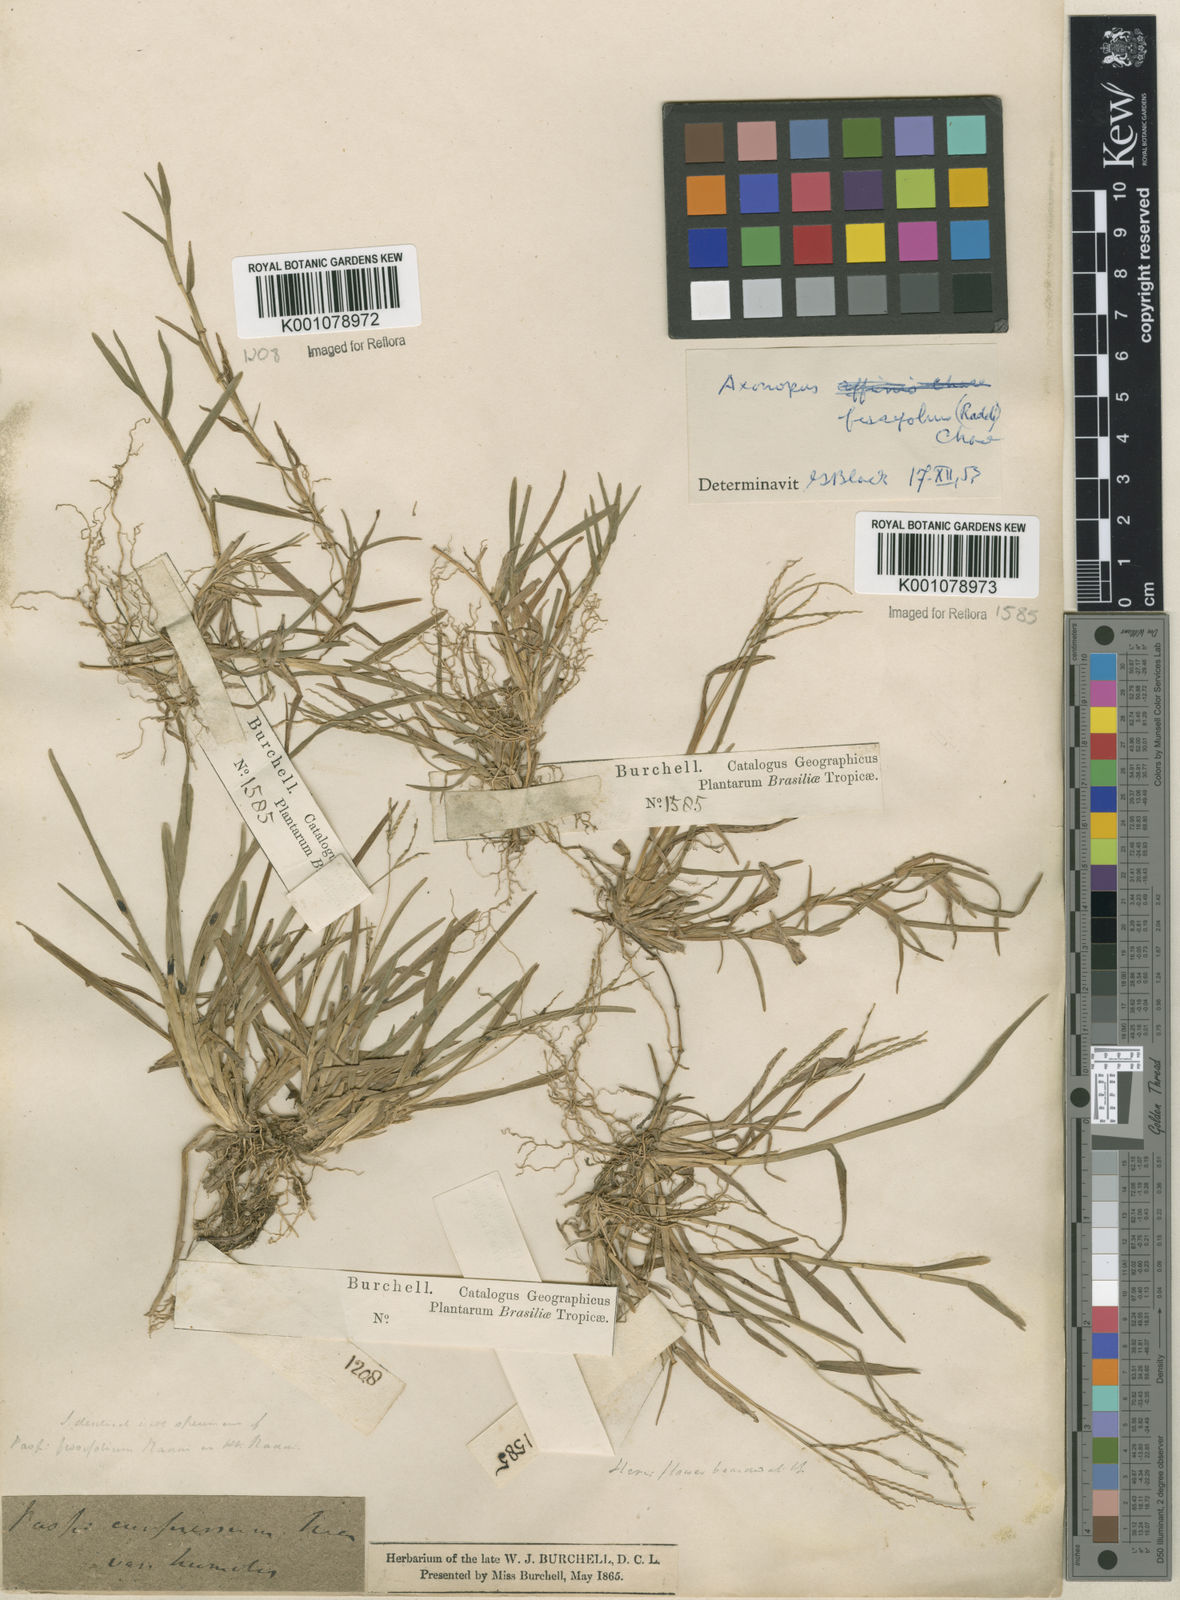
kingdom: Plantae
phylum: Tracheophyta
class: Liliopsida
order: Poales
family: Poaceae
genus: Axonopus
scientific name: Axonopus fissifolius
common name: Common carpetgrass
